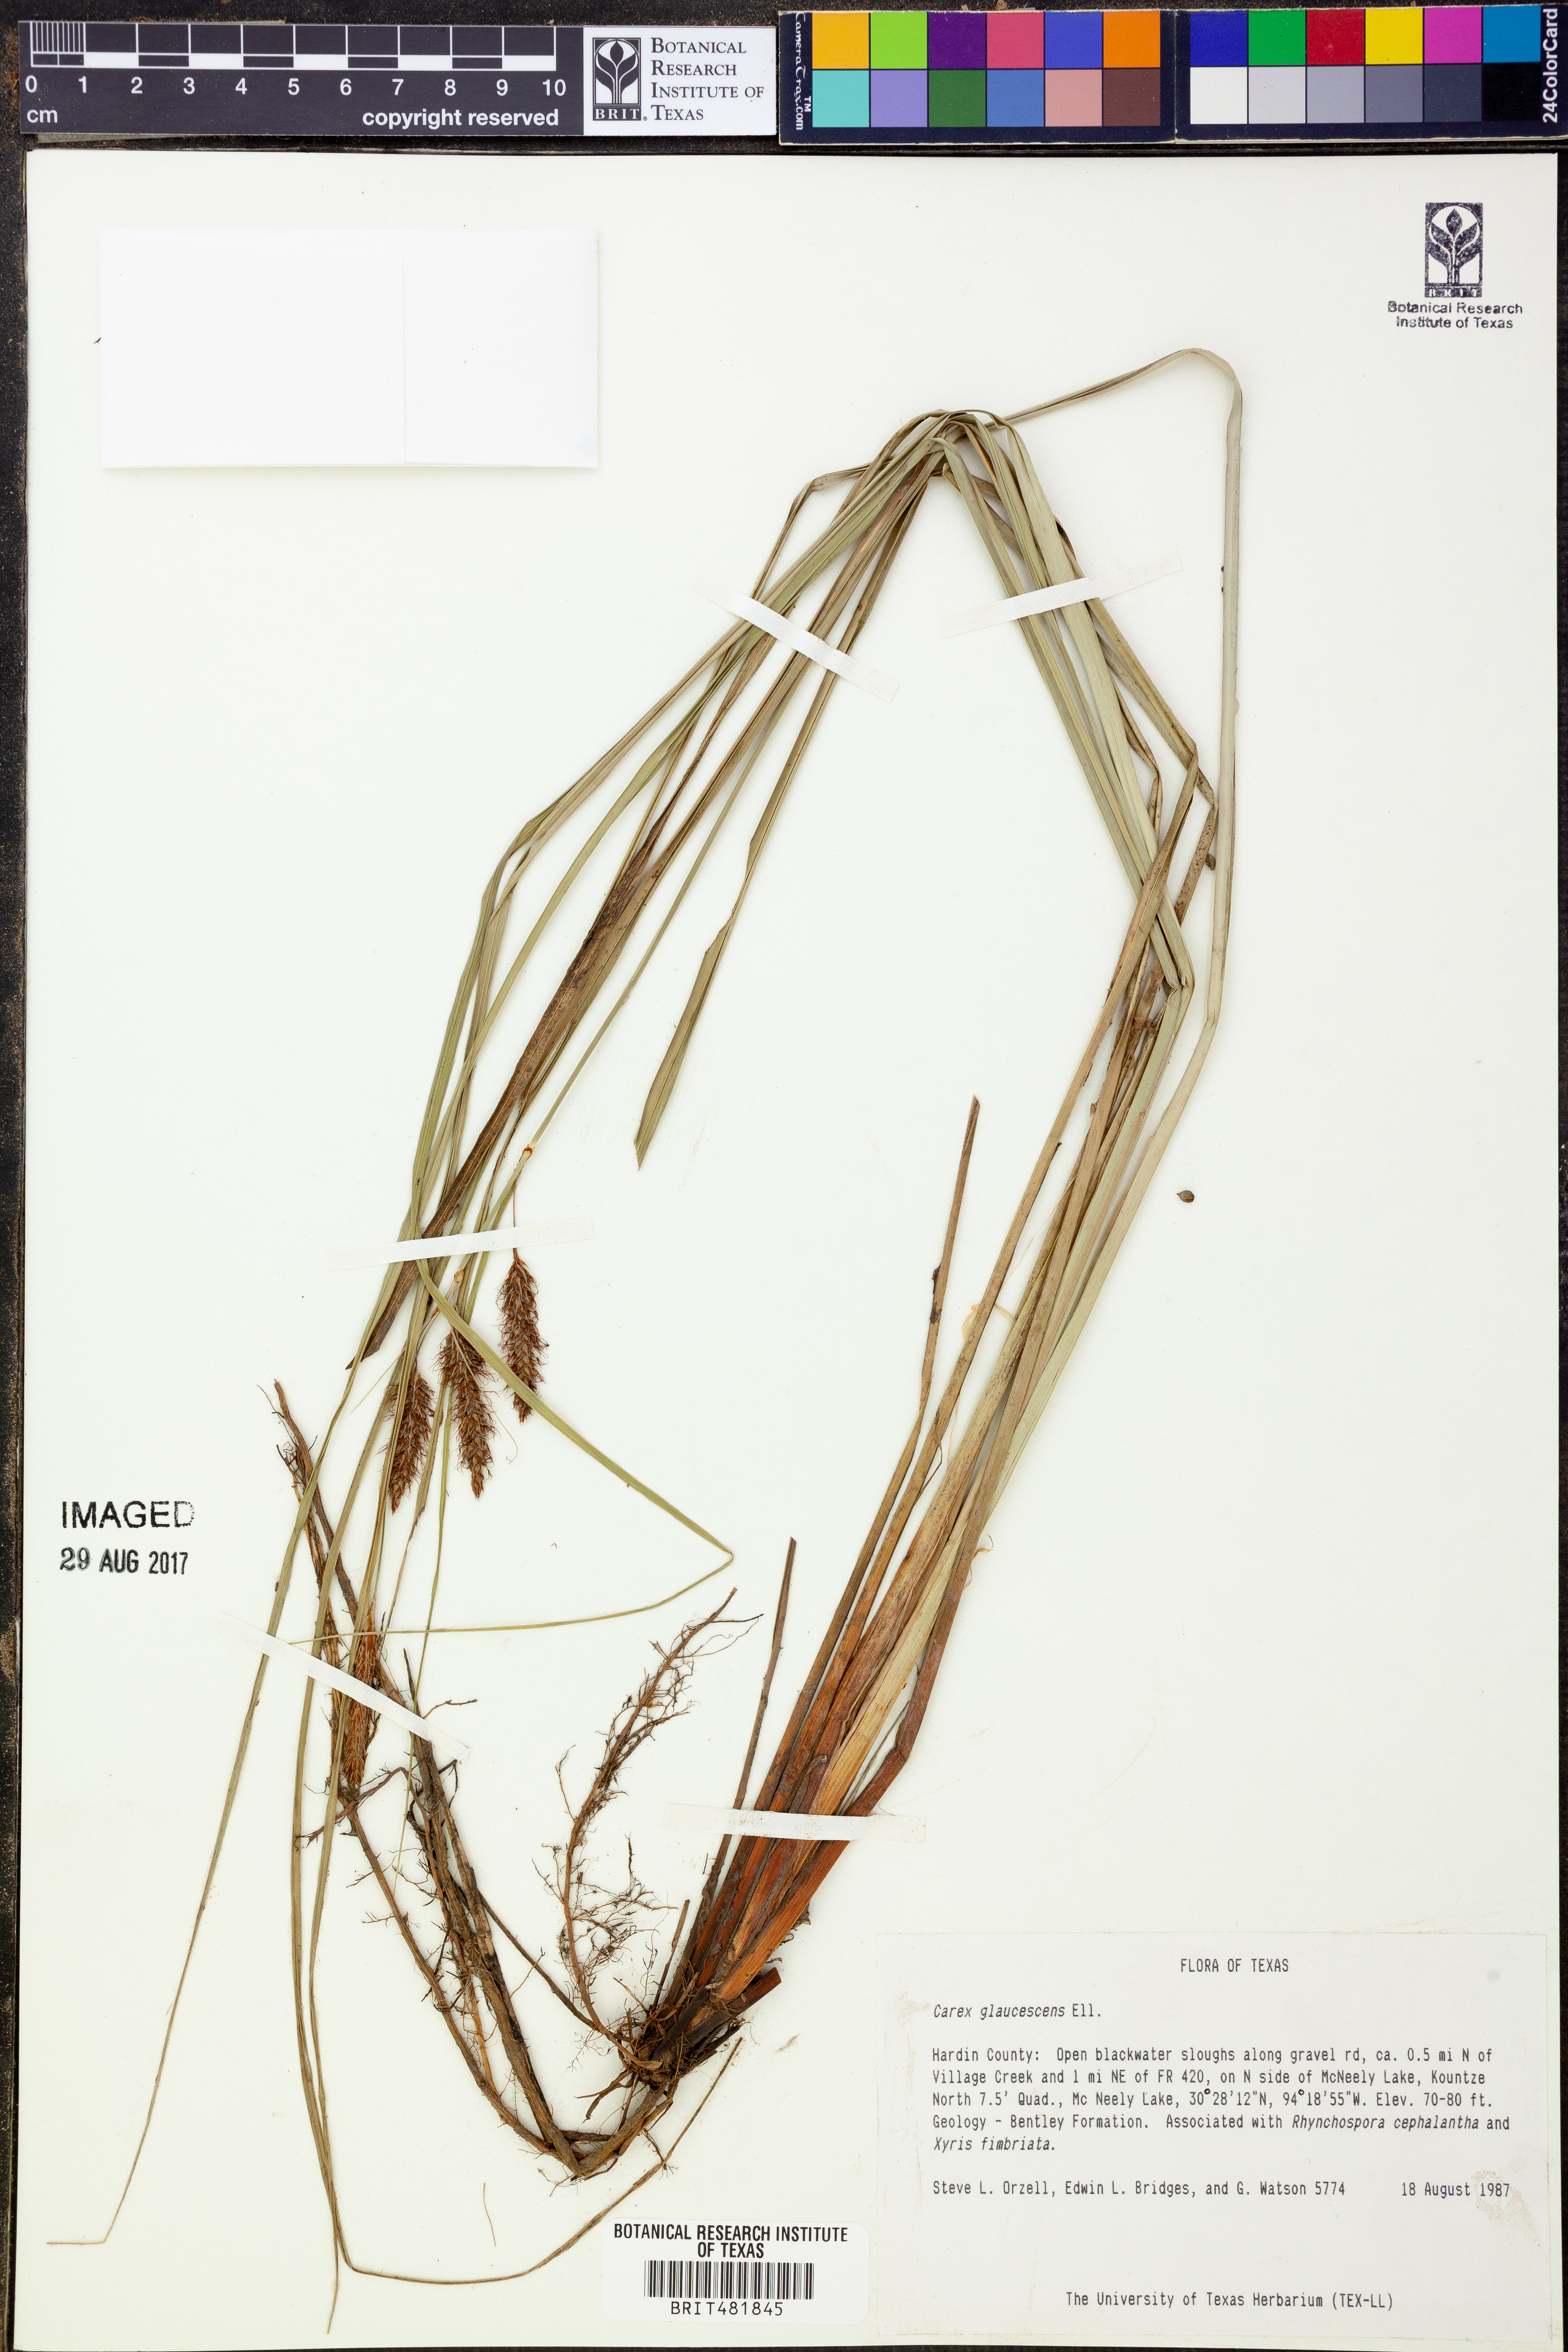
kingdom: Plantae
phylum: Tracheophyta
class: Liliopsida
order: Poales
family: Cyperaceae
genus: Carex
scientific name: Carex glaucescens
